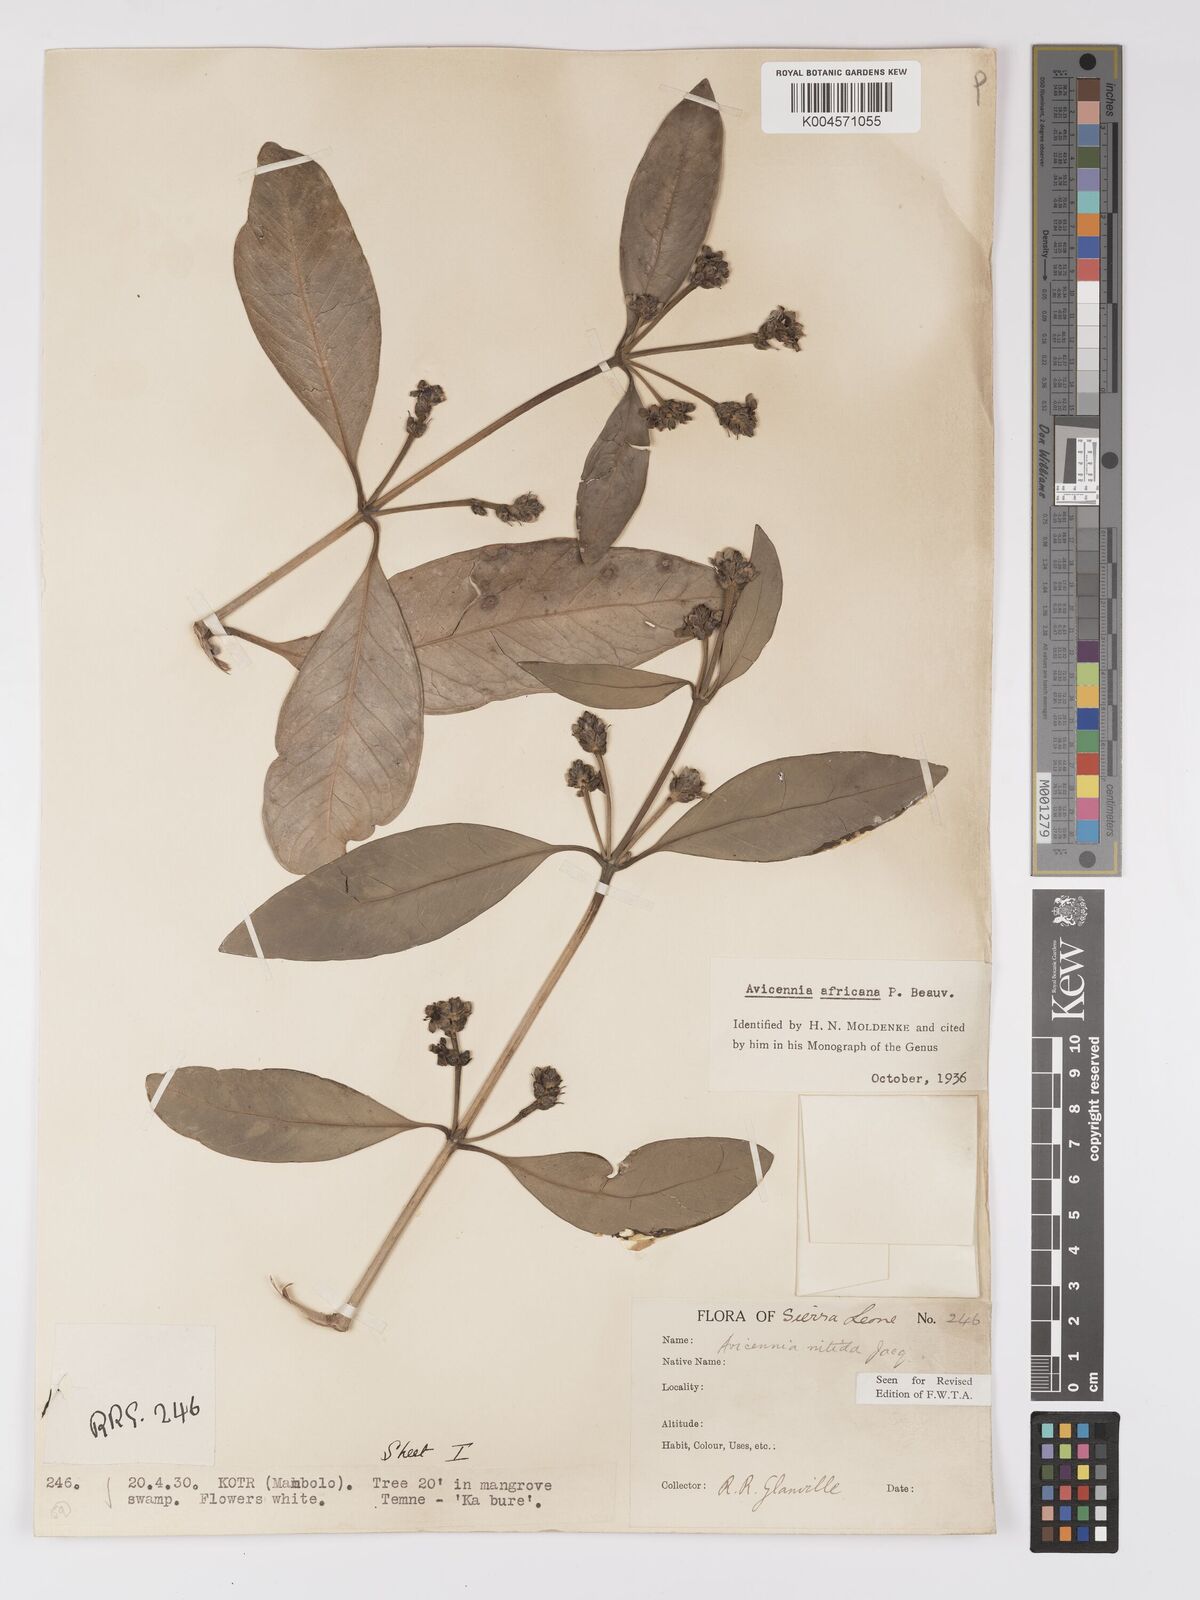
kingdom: Plantae
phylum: Tracheophyta
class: Magnoliopsida
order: Lamiales
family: Acanthaceae
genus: Avicennia
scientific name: Avicennia germinans
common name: Black mangrove
